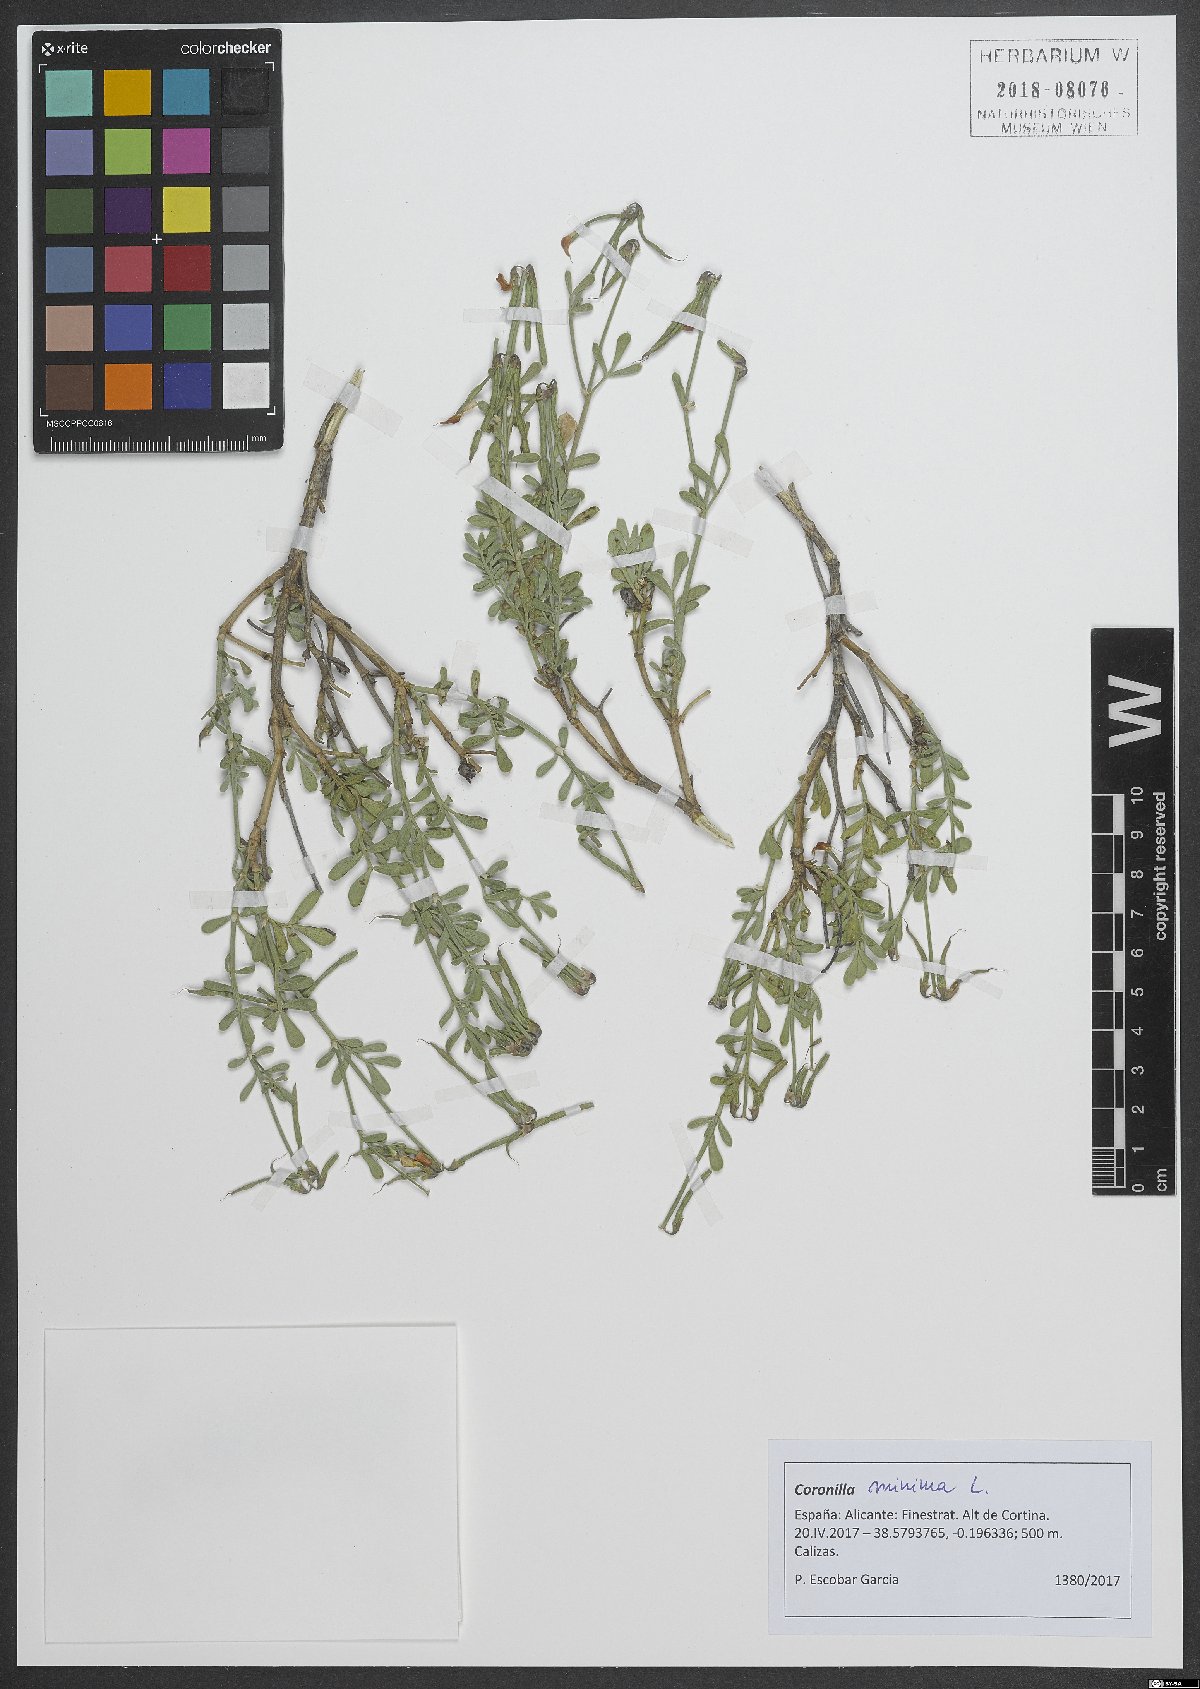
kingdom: Plantae
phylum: Tracheophyta
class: Magnoliopsida
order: Fabales
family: Fabaceae
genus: Coronilla
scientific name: Coronilla minima
